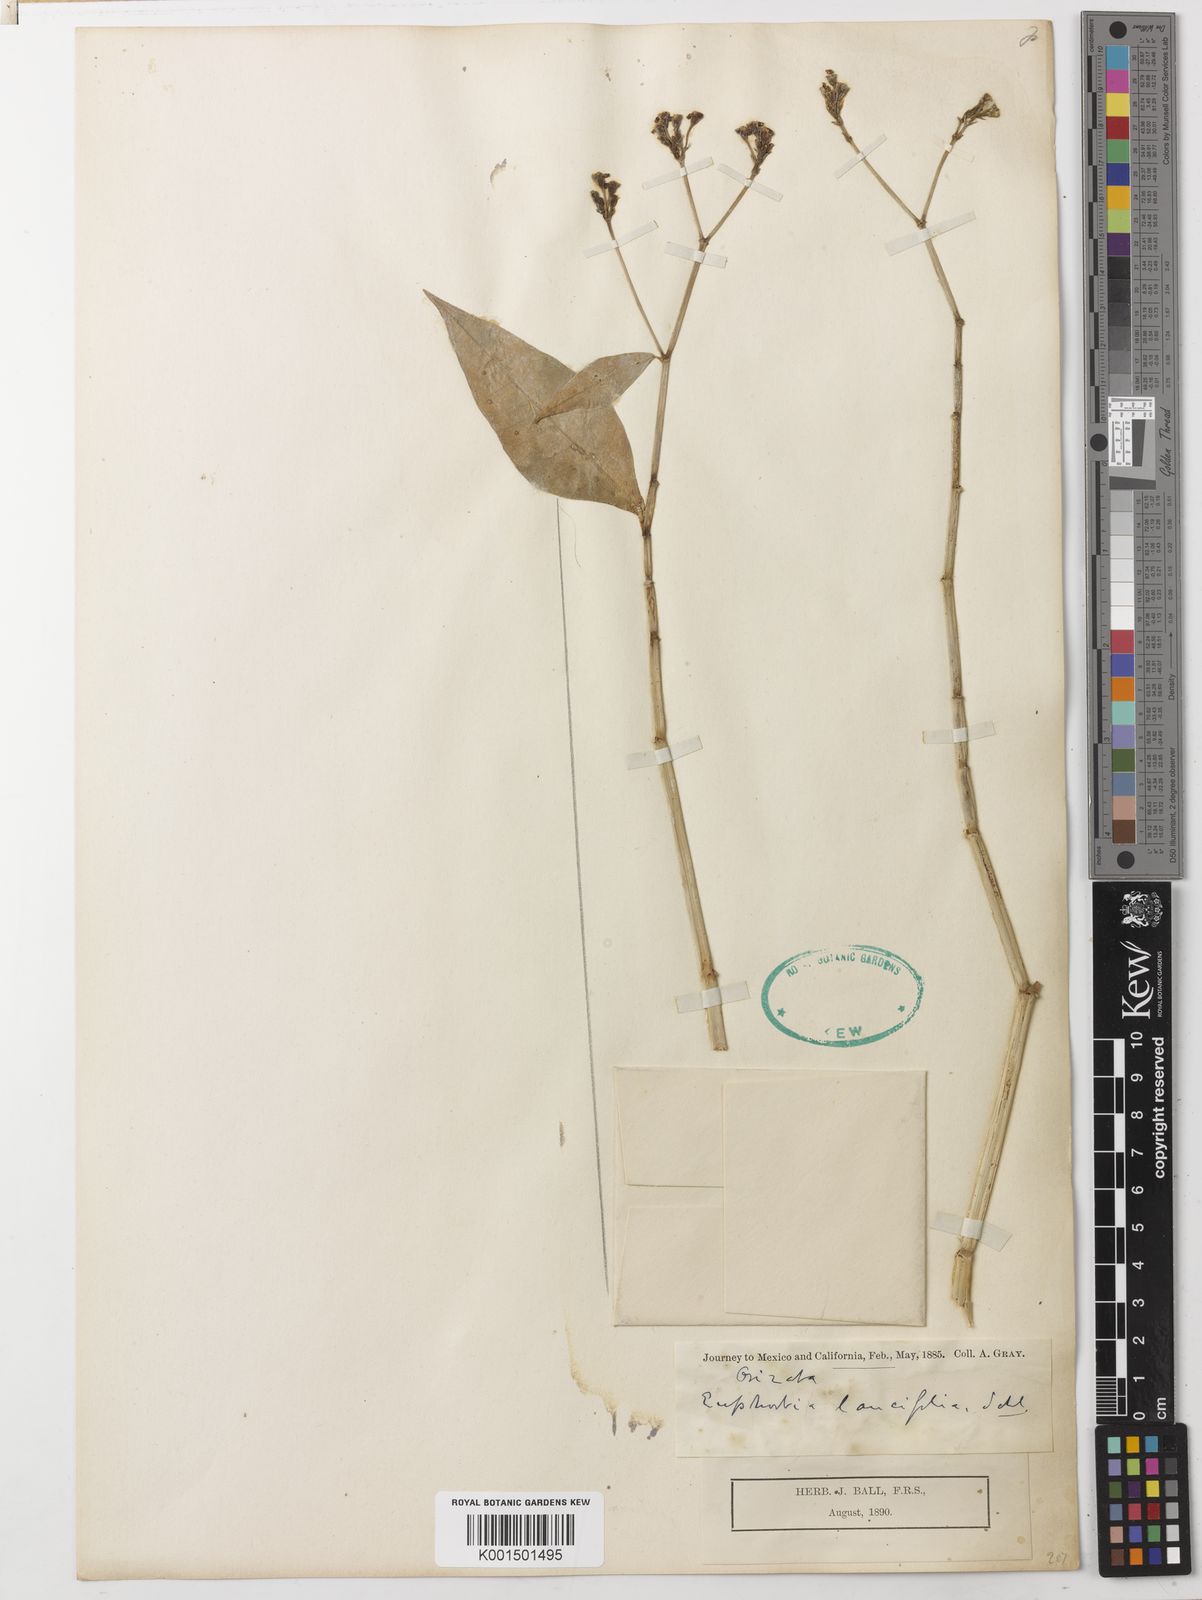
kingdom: Plantae
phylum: Tracheophyta
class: Magnoliopsida
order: Malpighiales
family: Euphorbiaceae
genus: Euphorbia
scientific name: Euphorbia lancifolia
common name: Ixbut
